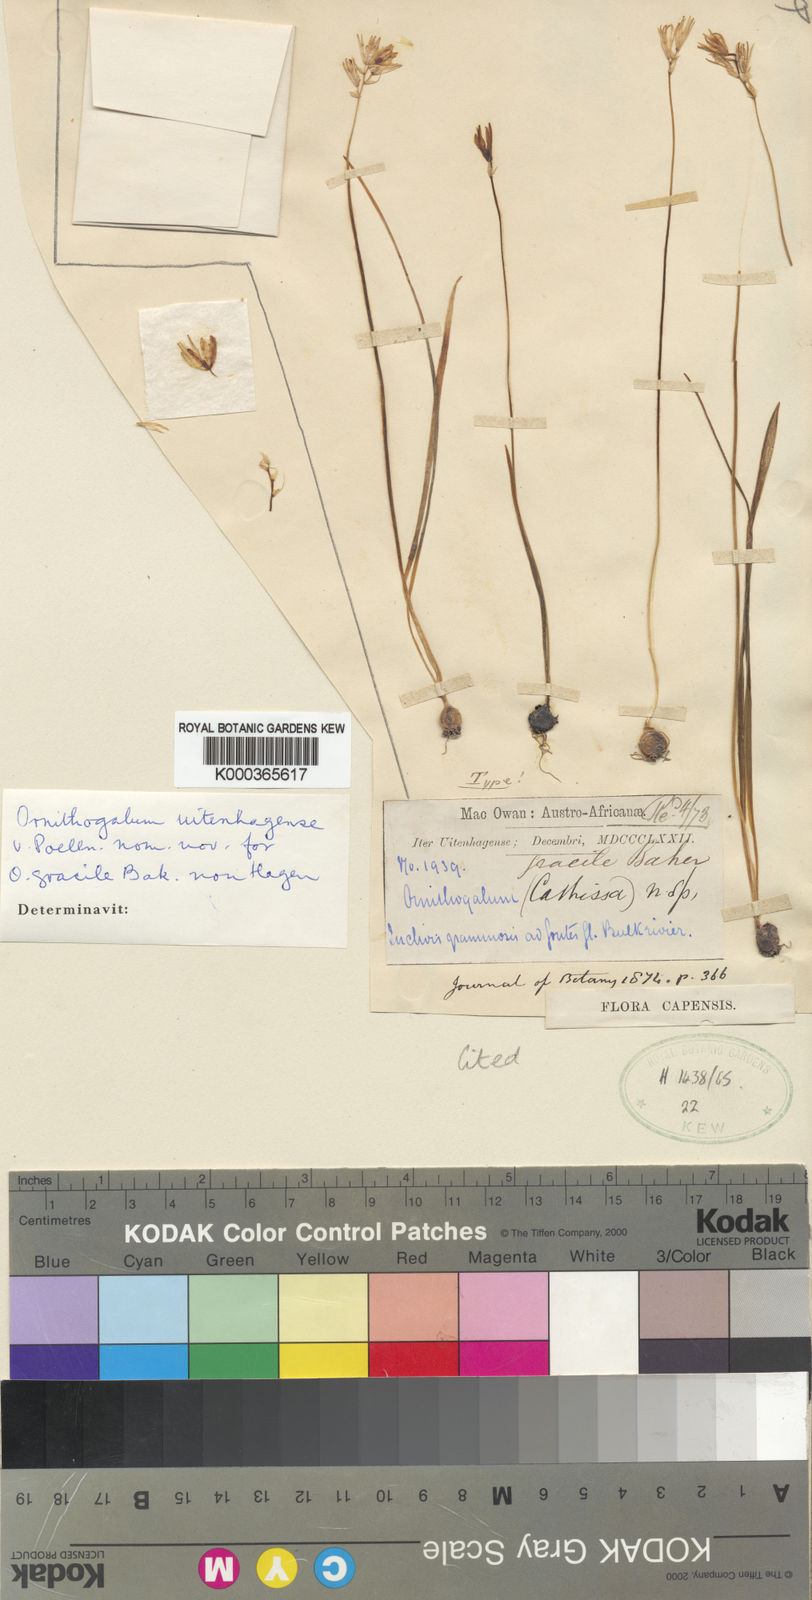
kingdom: Plantae
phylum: Tracheophyta
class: Liliopsida
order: Asparagales
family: Asparagaceae
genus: Ornithogalum
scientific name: Ornithogalum paludosum
